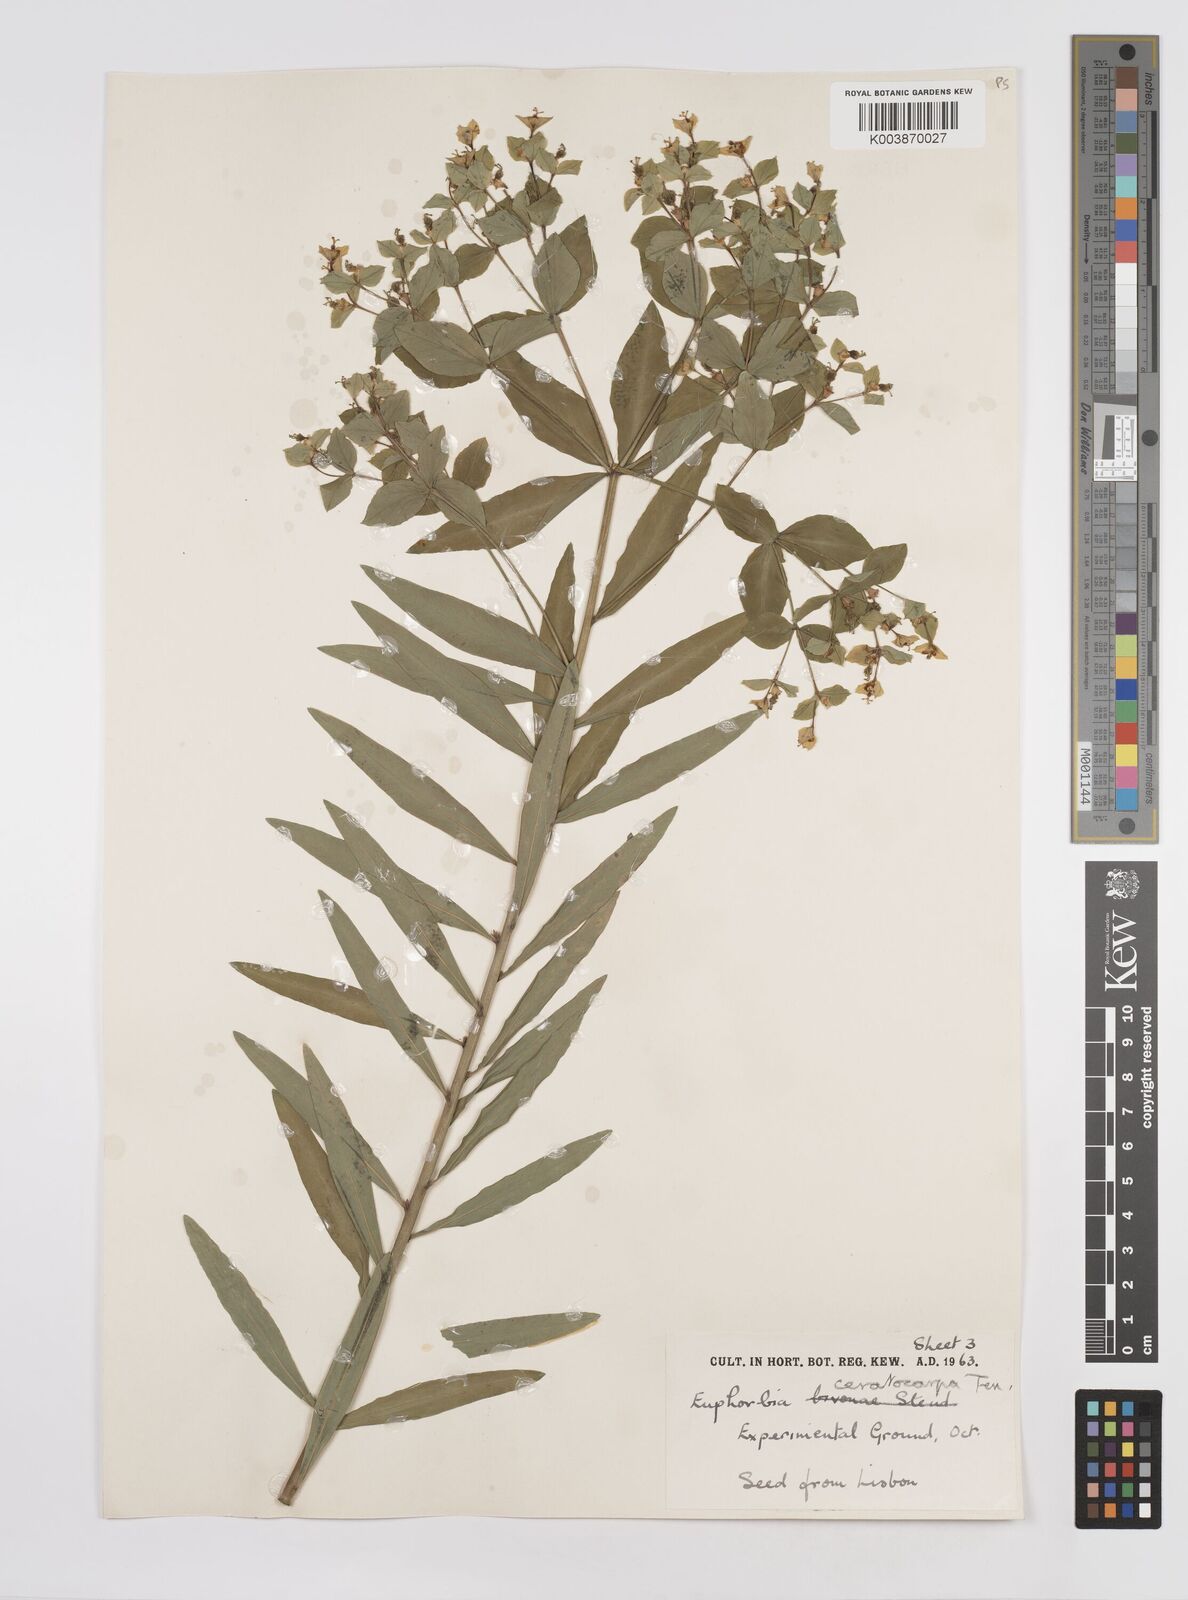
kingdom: Plantae
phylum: Tracheophyta
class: Magnoliopsida
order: Malpighiales
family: Euphorbiaceae
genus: Euphorbia
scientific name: Euphorbia ceratocarpa
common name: Horned spurge
